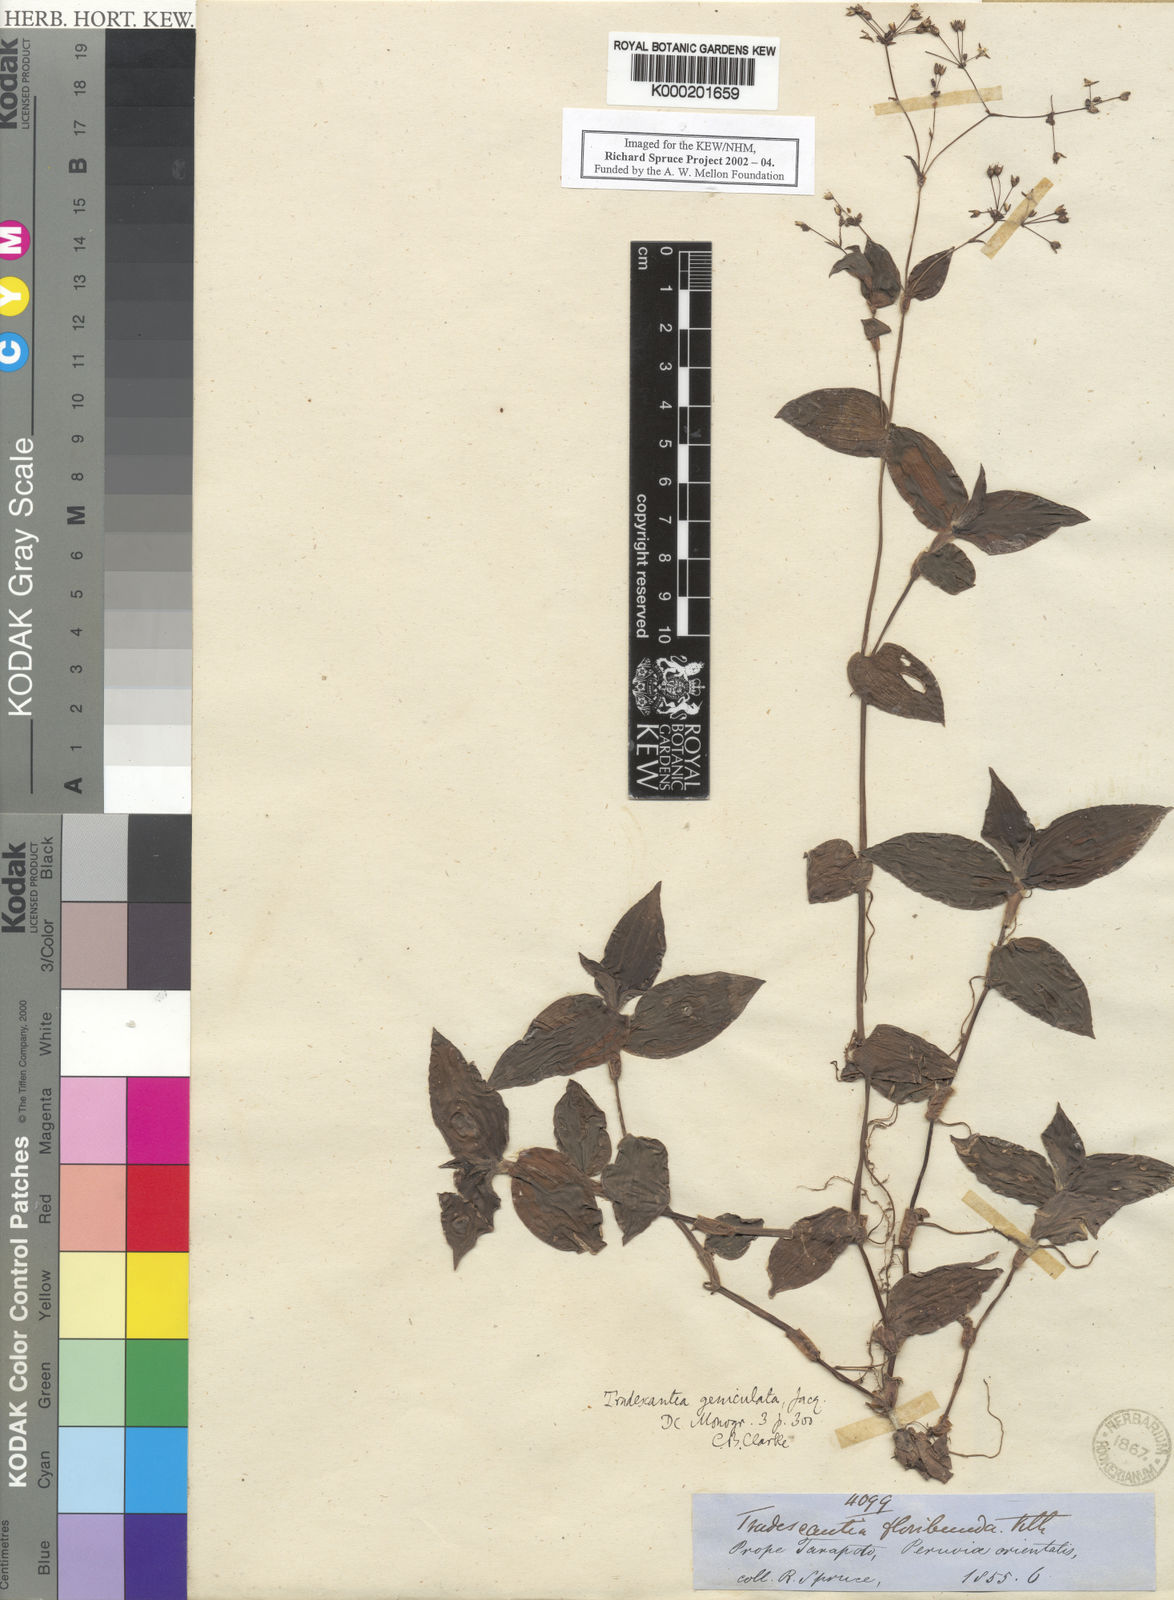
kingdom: Plantae
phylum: Tracheophyta
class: Liliopsida
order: Commelinales
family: Commelinaceae
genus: Gibasis
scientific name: Gibasis geniculata
